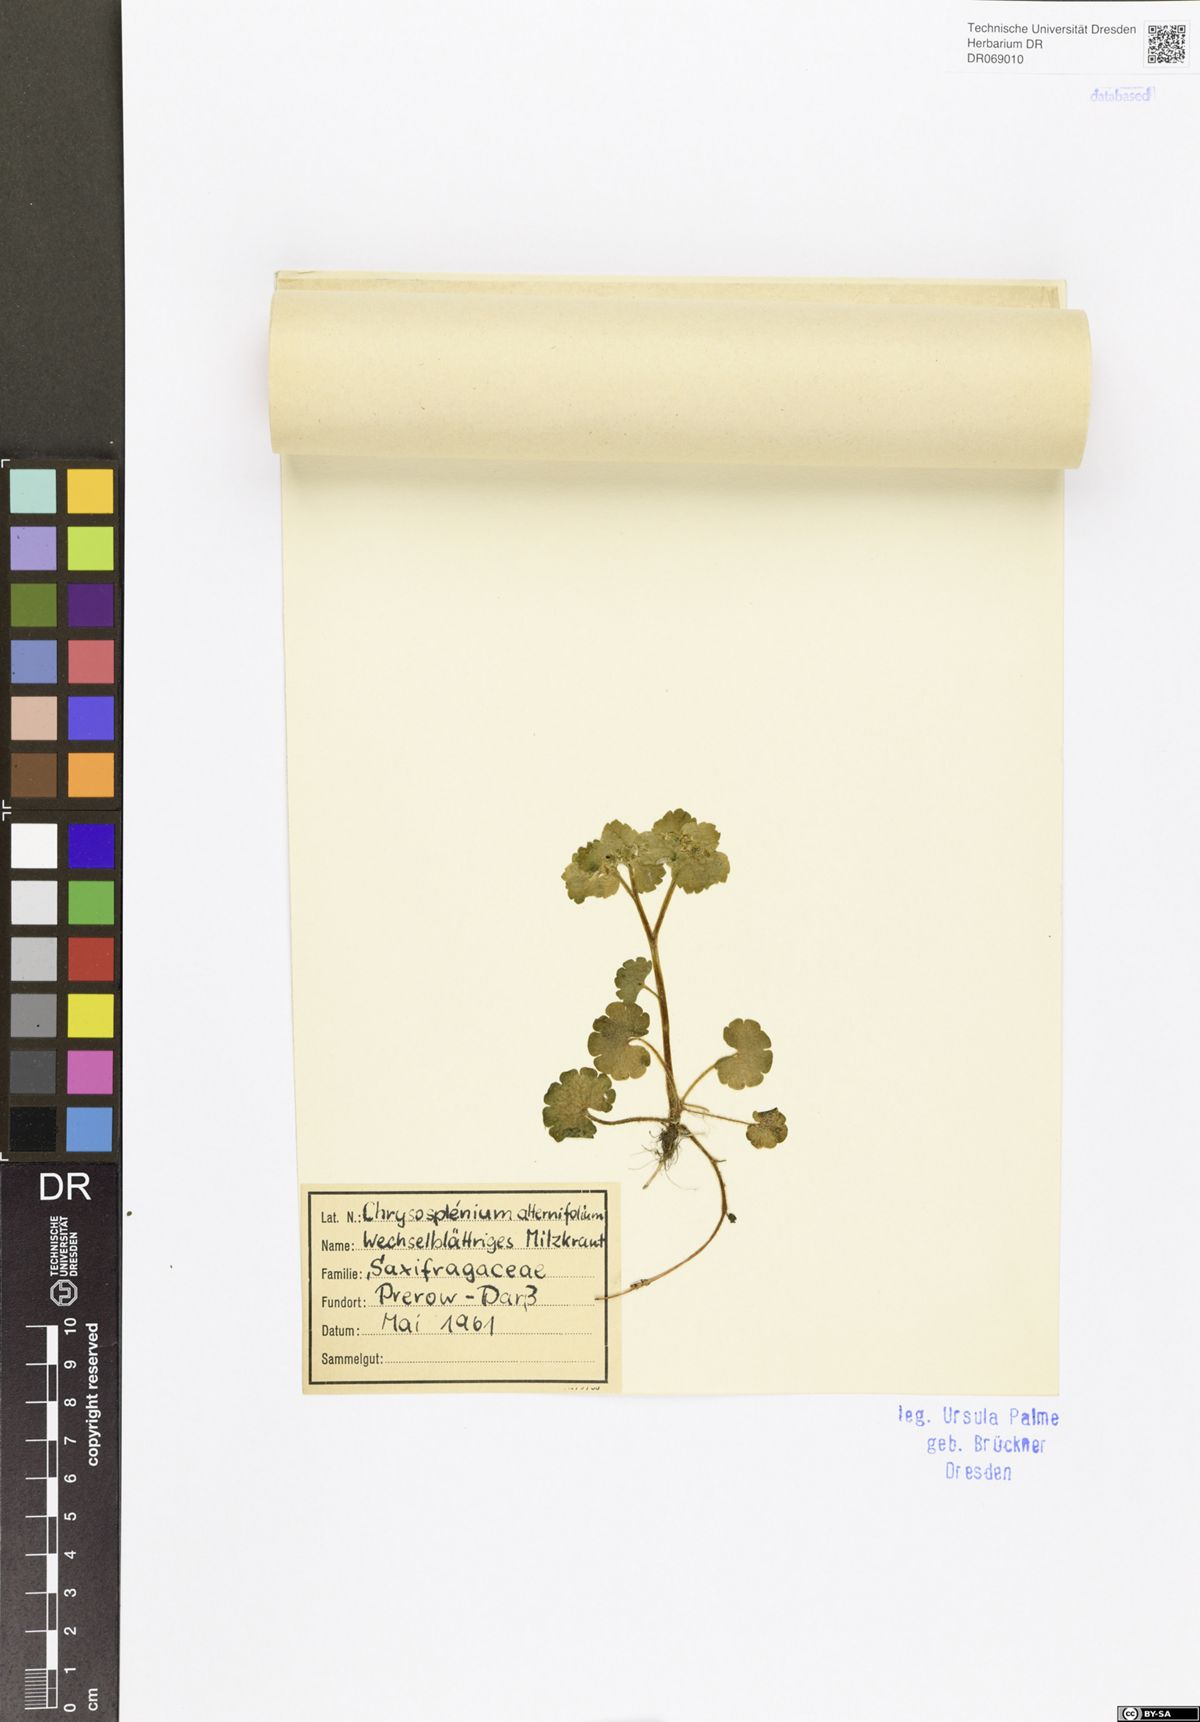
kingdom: Plantae
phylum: Tracheophyta
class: Magnoliopsida
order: Saxifragales
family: Saxifragaceae
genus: Chrysosplenium
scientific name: Chrysosplenium alternifolium
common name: Alternate-leaved golden-saxifrage
